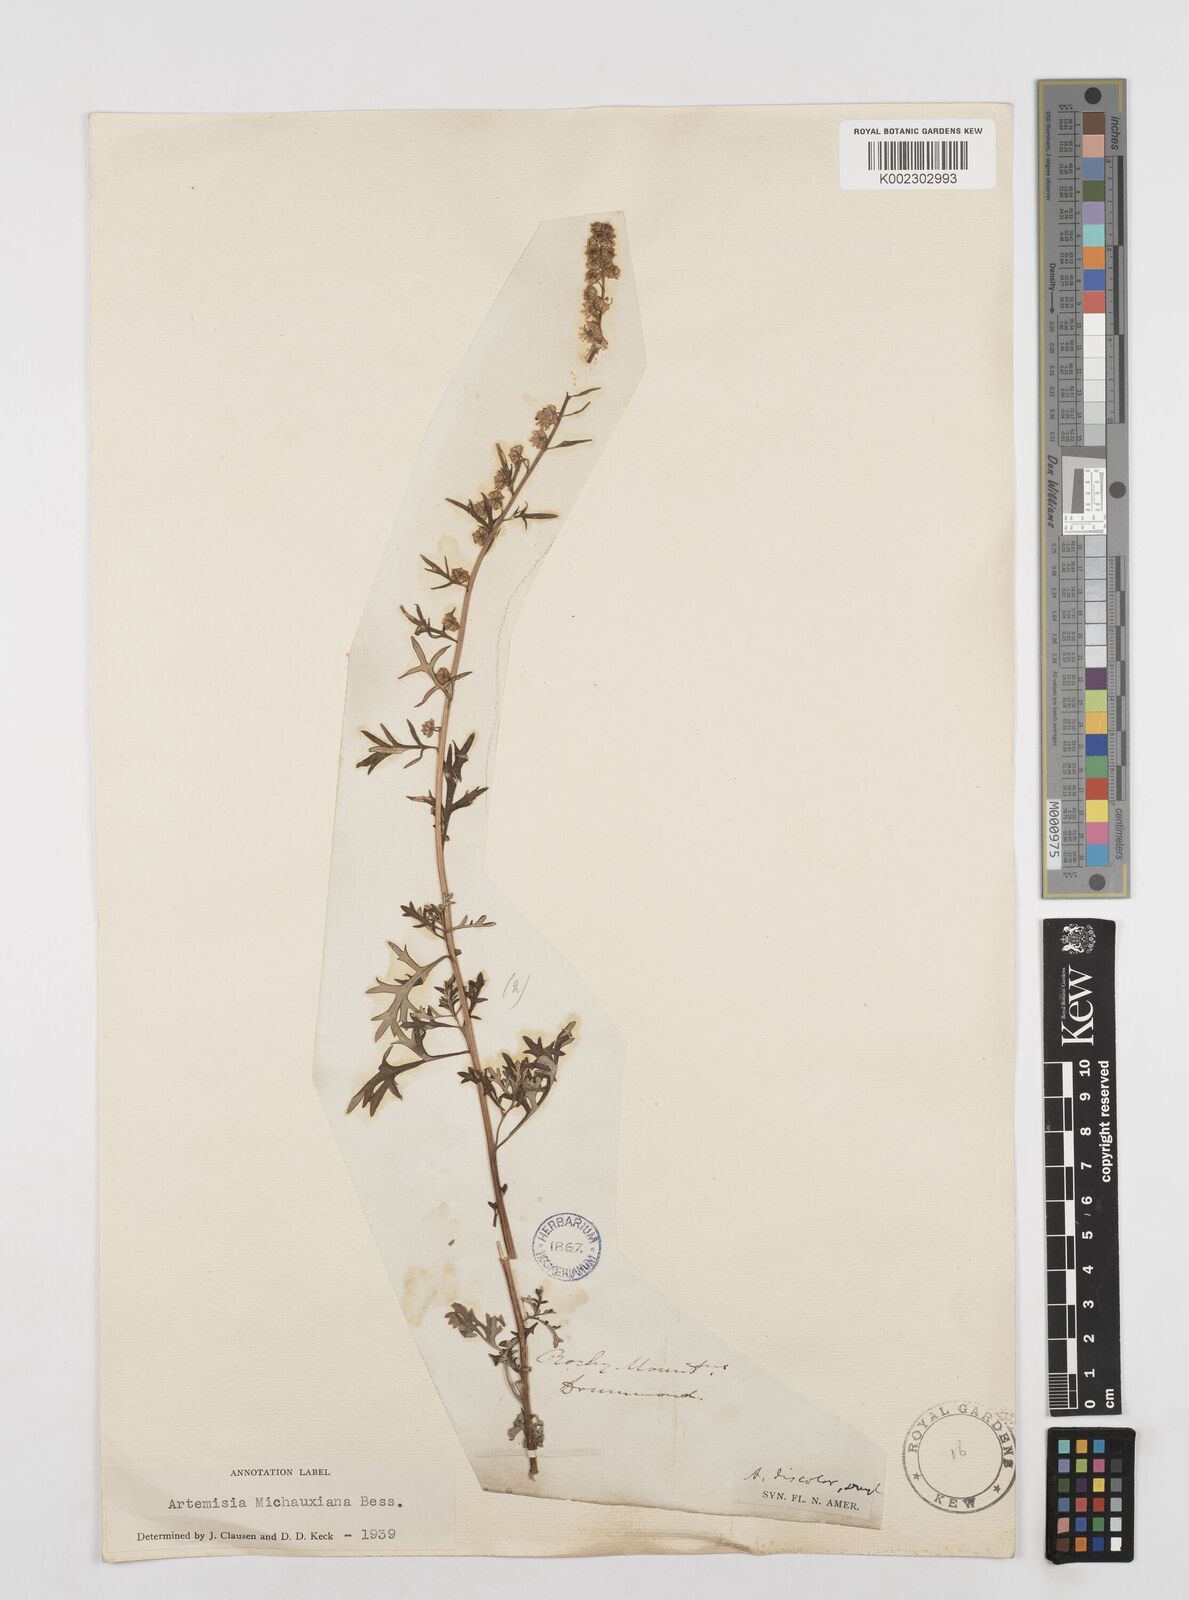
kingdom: Plantae
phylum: Tracheophyta
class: Magnoliopsida
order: Asterales
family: Asteraceae
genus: Artemisia
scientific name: Artemisia michauxiana
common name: Lemon sagewort
